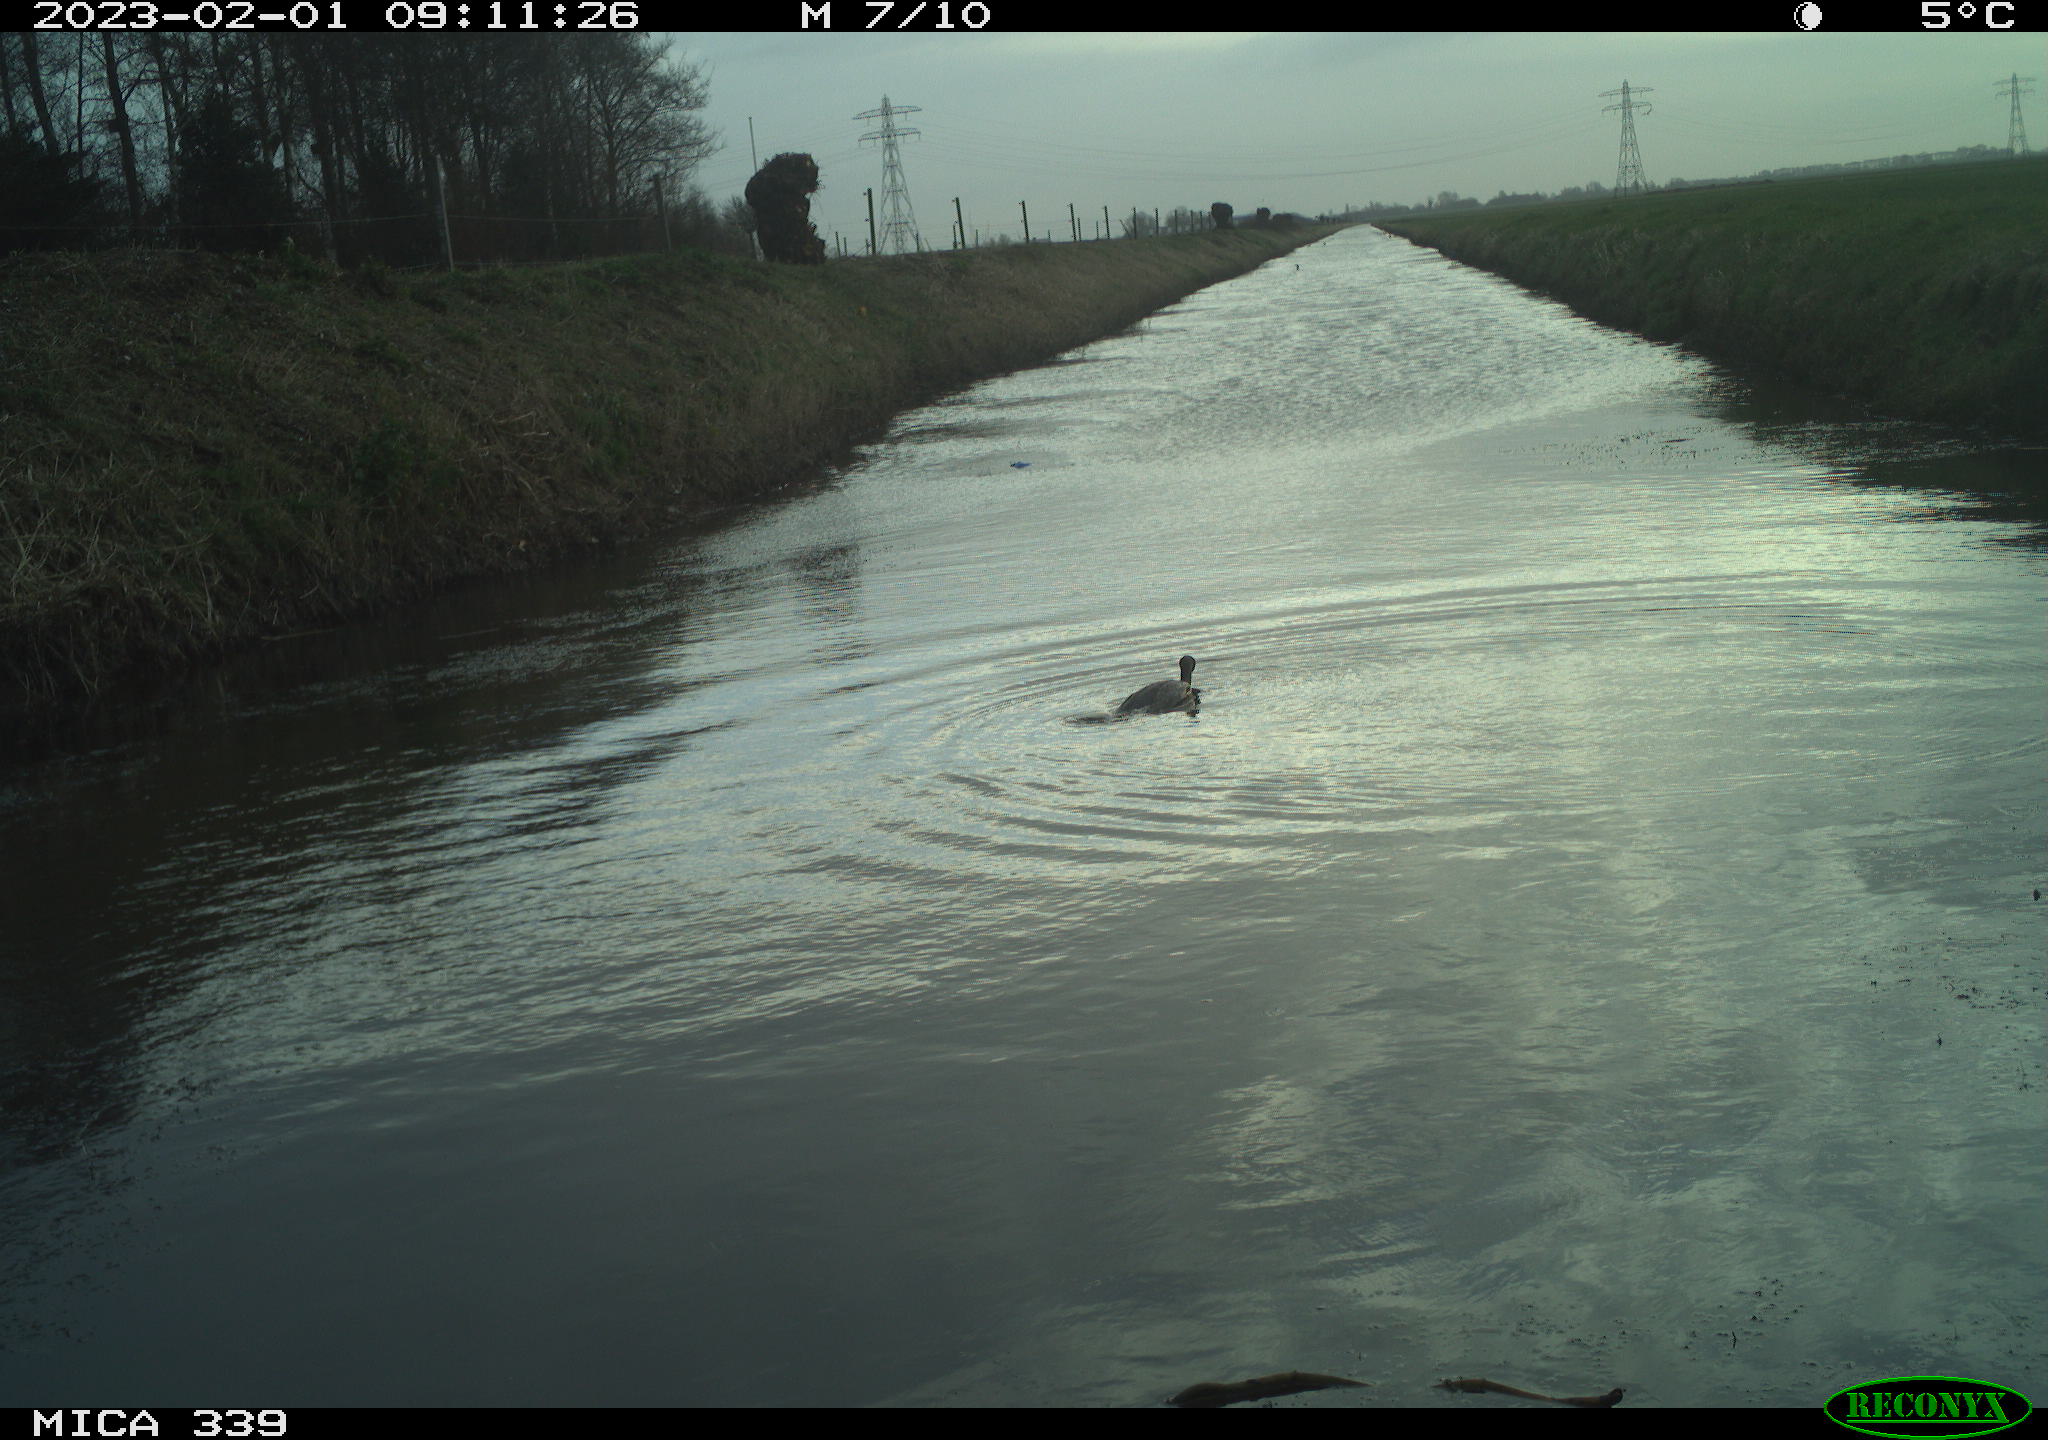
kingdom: Animalia
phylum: Chordata
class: Aves
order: Suliformes
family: Phalacrocoracidae
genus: Phalacrocorax
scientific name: Phalacrocorax carbo
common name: Great cormorant
